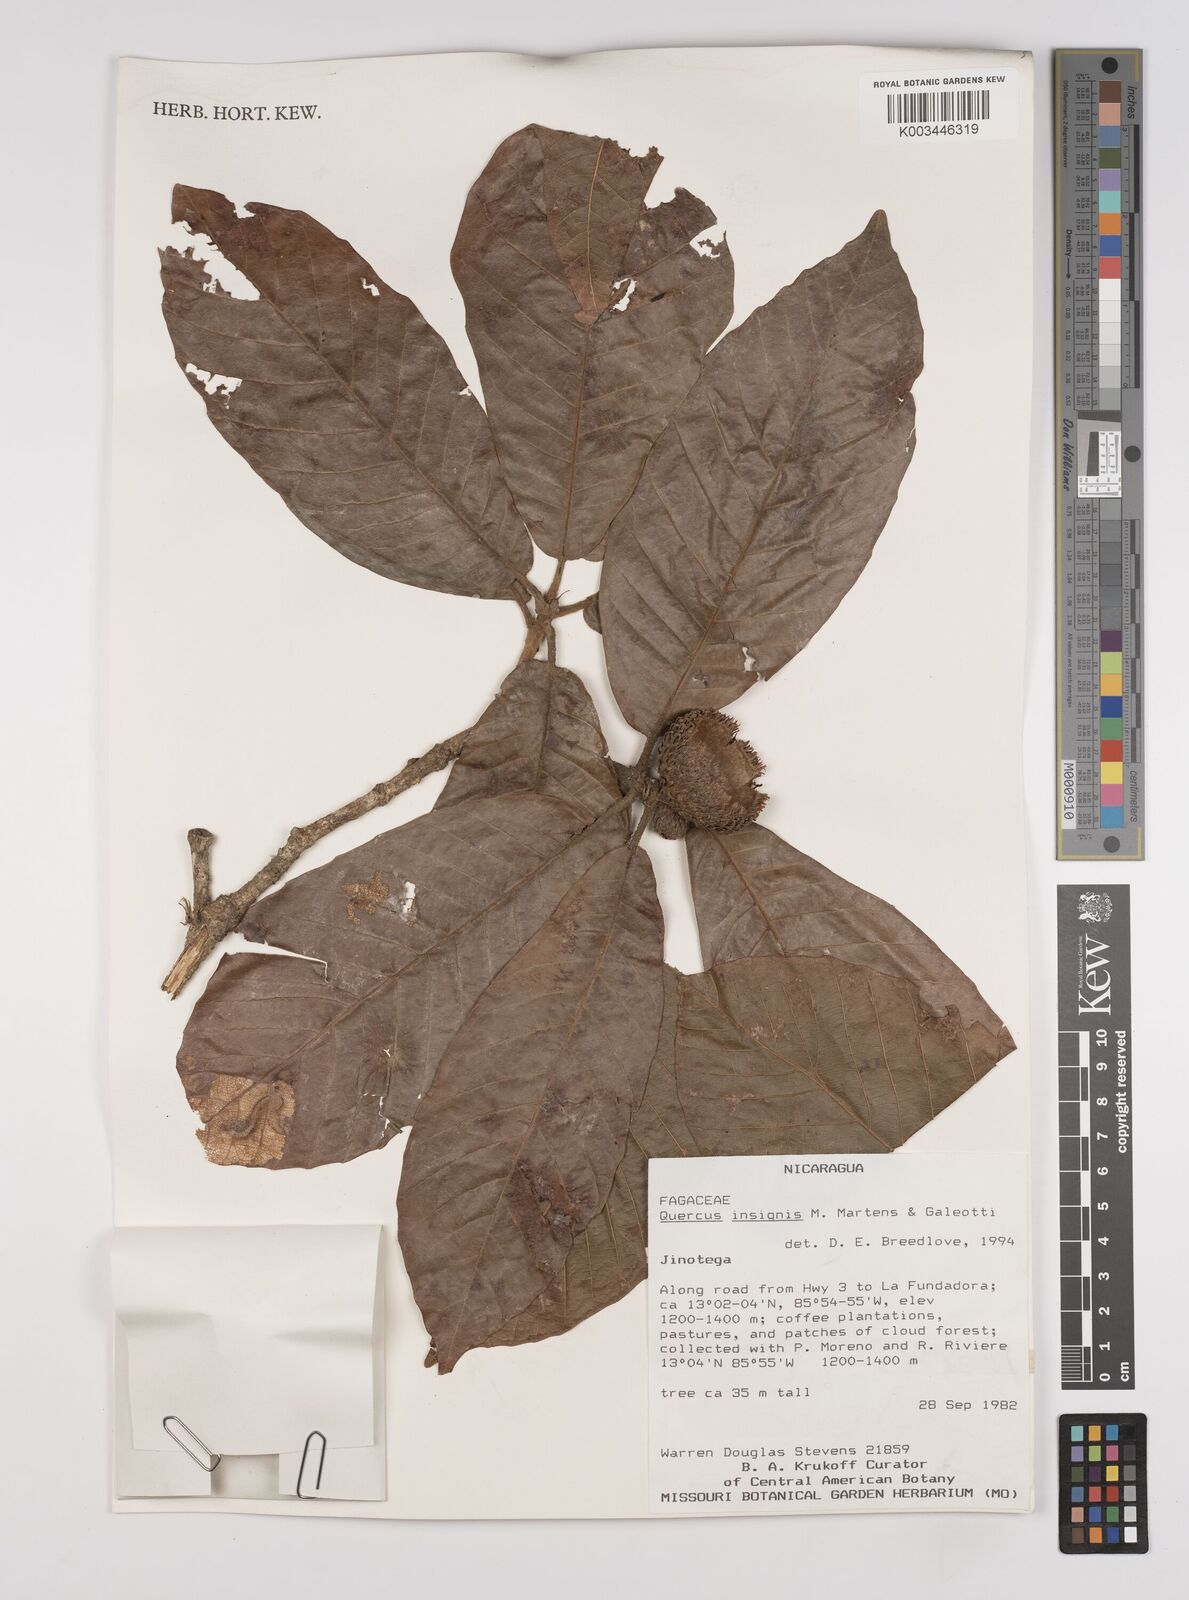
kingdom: Plantae
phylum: Tracheophyta
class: Magnoliopsida
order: Fagales
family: Fagaceae
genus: Quercus
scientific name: Quercus insignis
